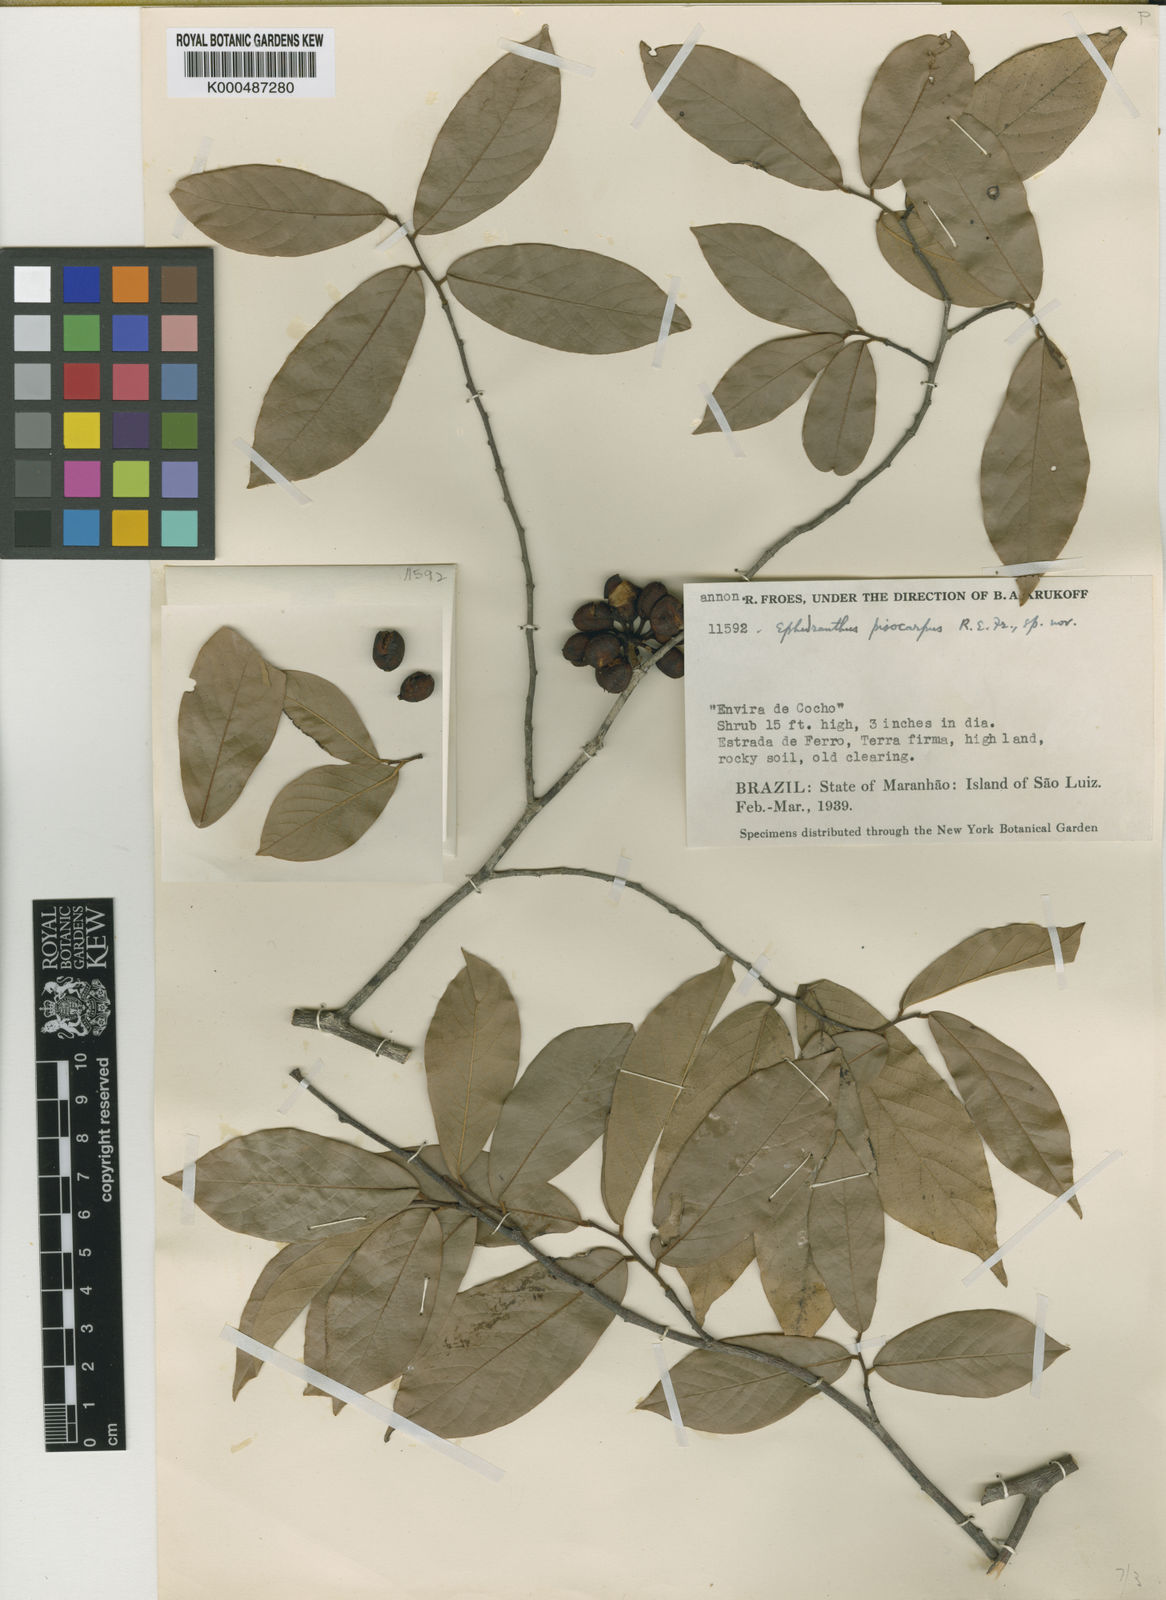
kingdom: Plantae
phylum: Tracheophyta
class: Magnoliopsida
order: Magnoliales
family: Annonaceae
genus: Ephedranthus
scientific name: Ephedranthus pisocarpus
